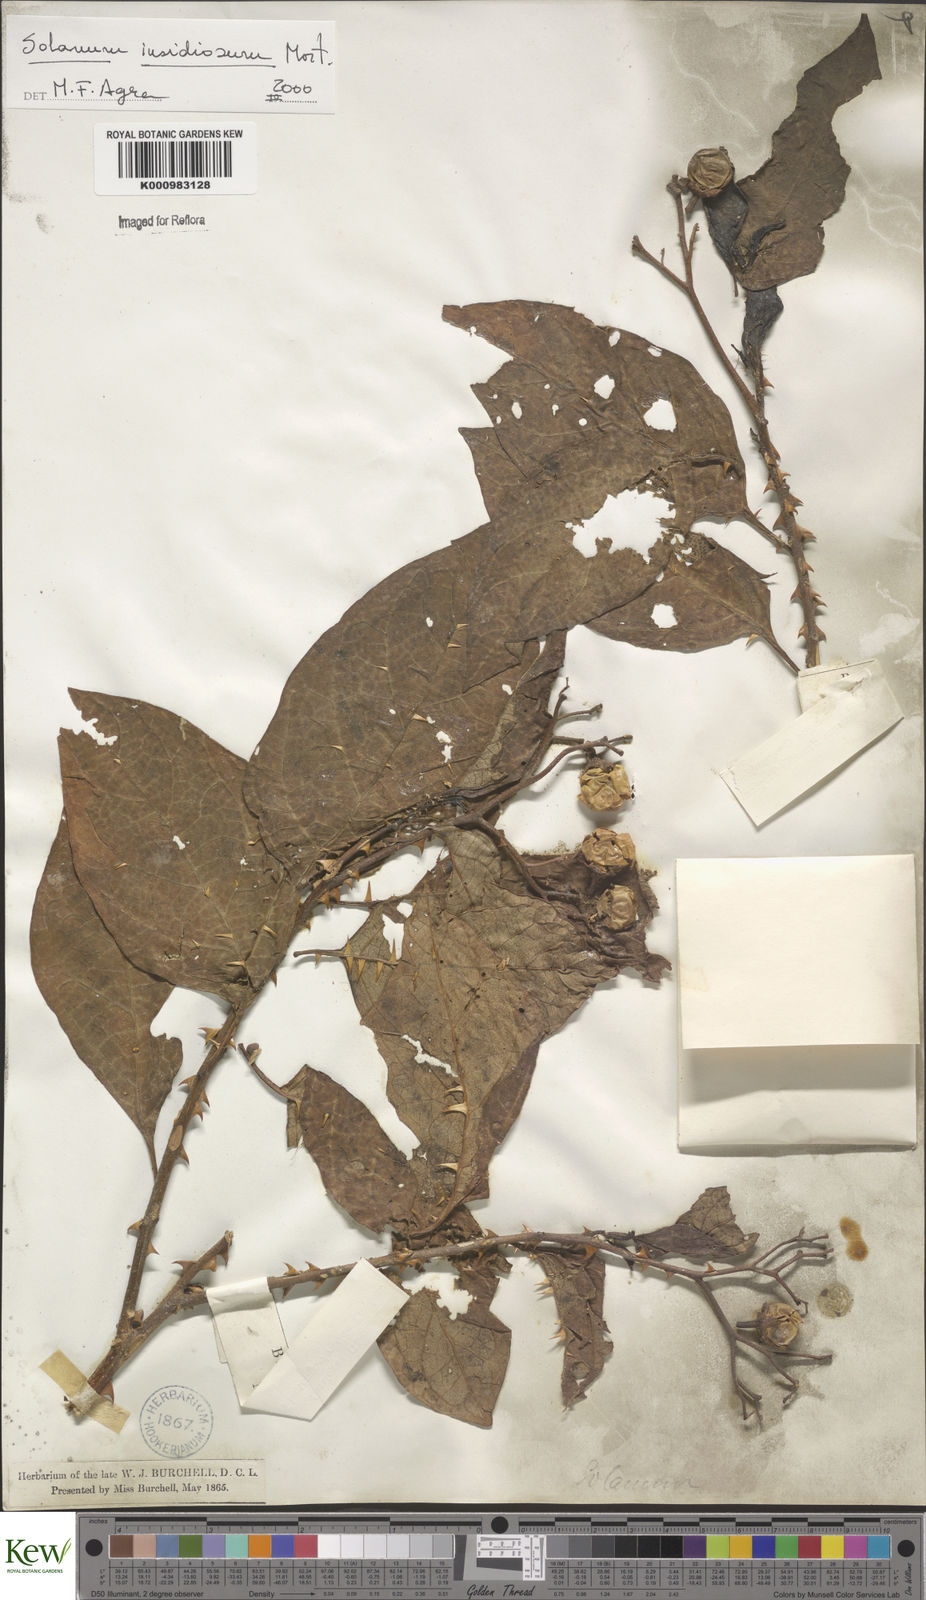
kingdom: Plantae
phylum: Tracheophyta
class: Magnoliopsida
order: Solanales
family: Solanaceae
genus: Solanum
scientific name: Solanum insidiosum
